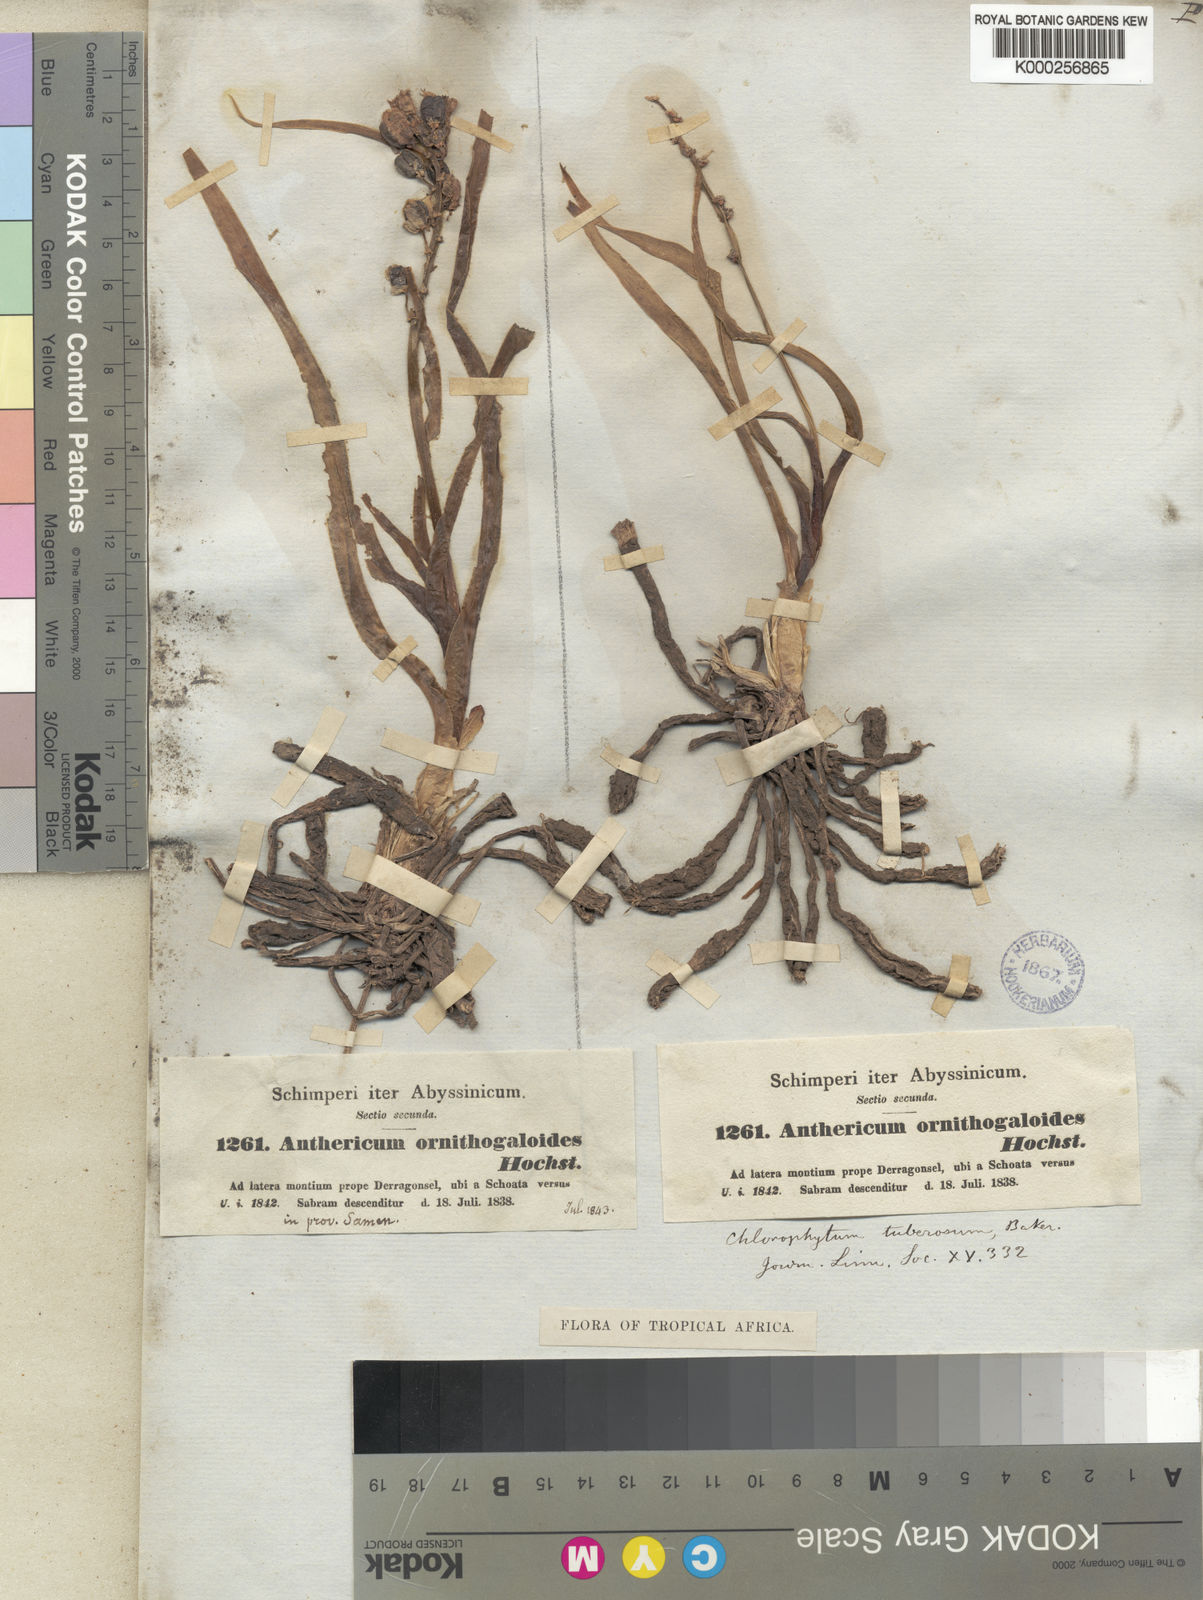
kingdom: Plantae
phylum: Tracheophyta
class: Liliopsida
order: Asparagales
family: Asparagaceae
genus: Chlorophytum
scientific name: Chlorophytum tuberosum
